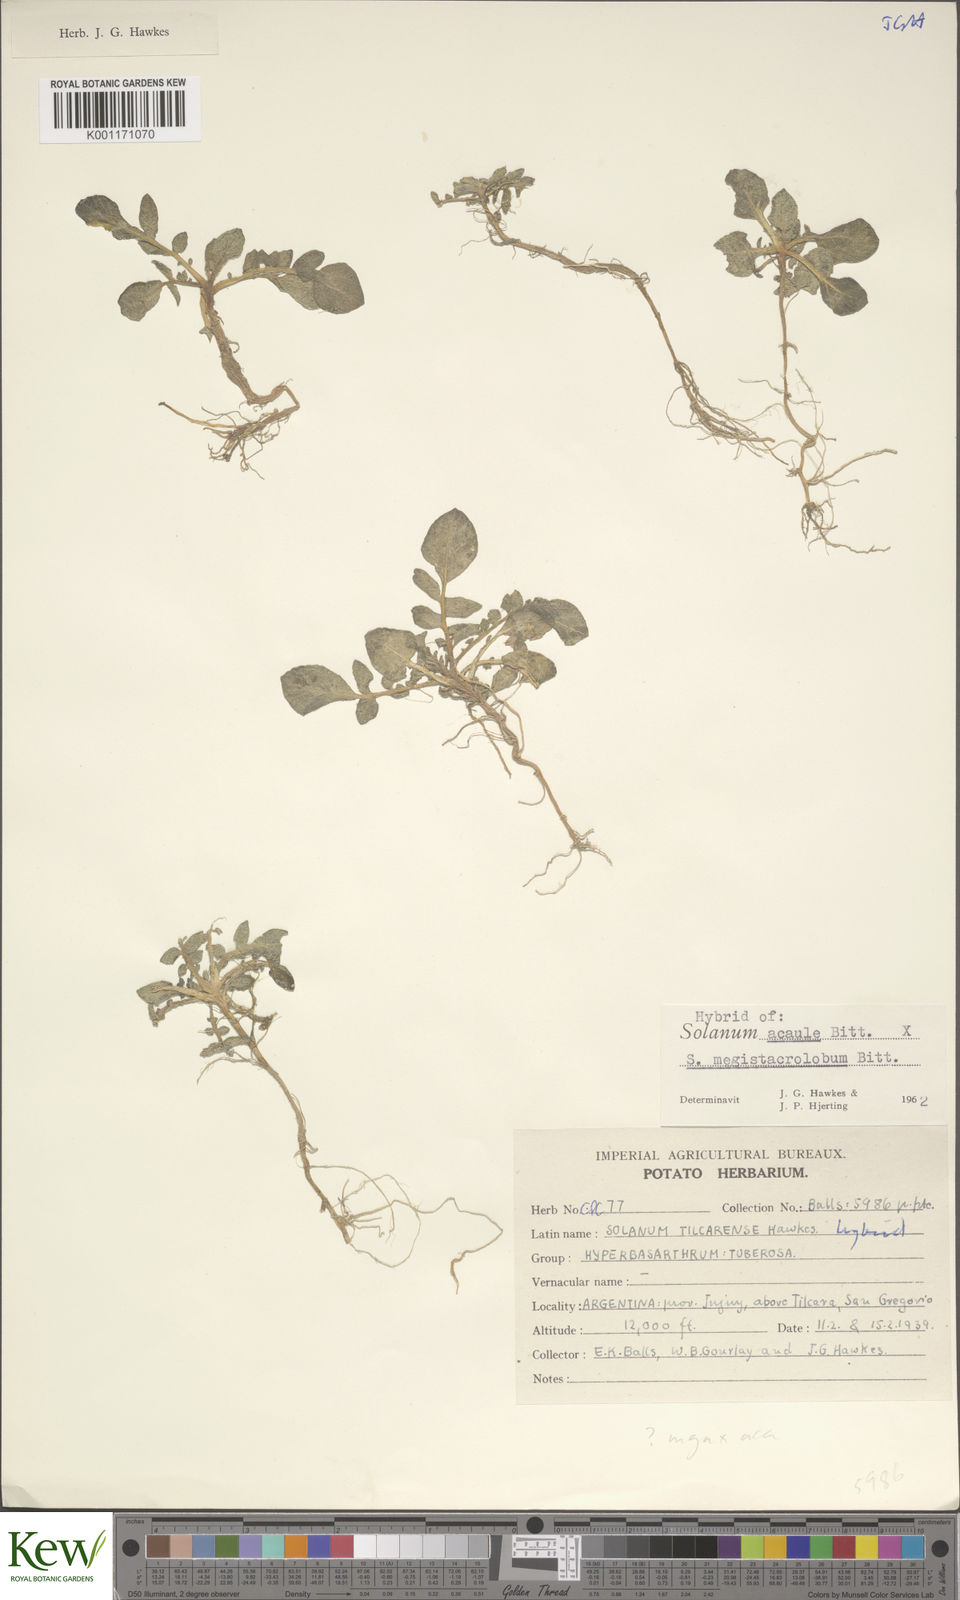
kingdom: Plantae
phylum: Tracheophyta
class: Magnoliopsida
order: Solanales
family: Solanaceae
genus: Solanum
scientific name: Solanum acaule
